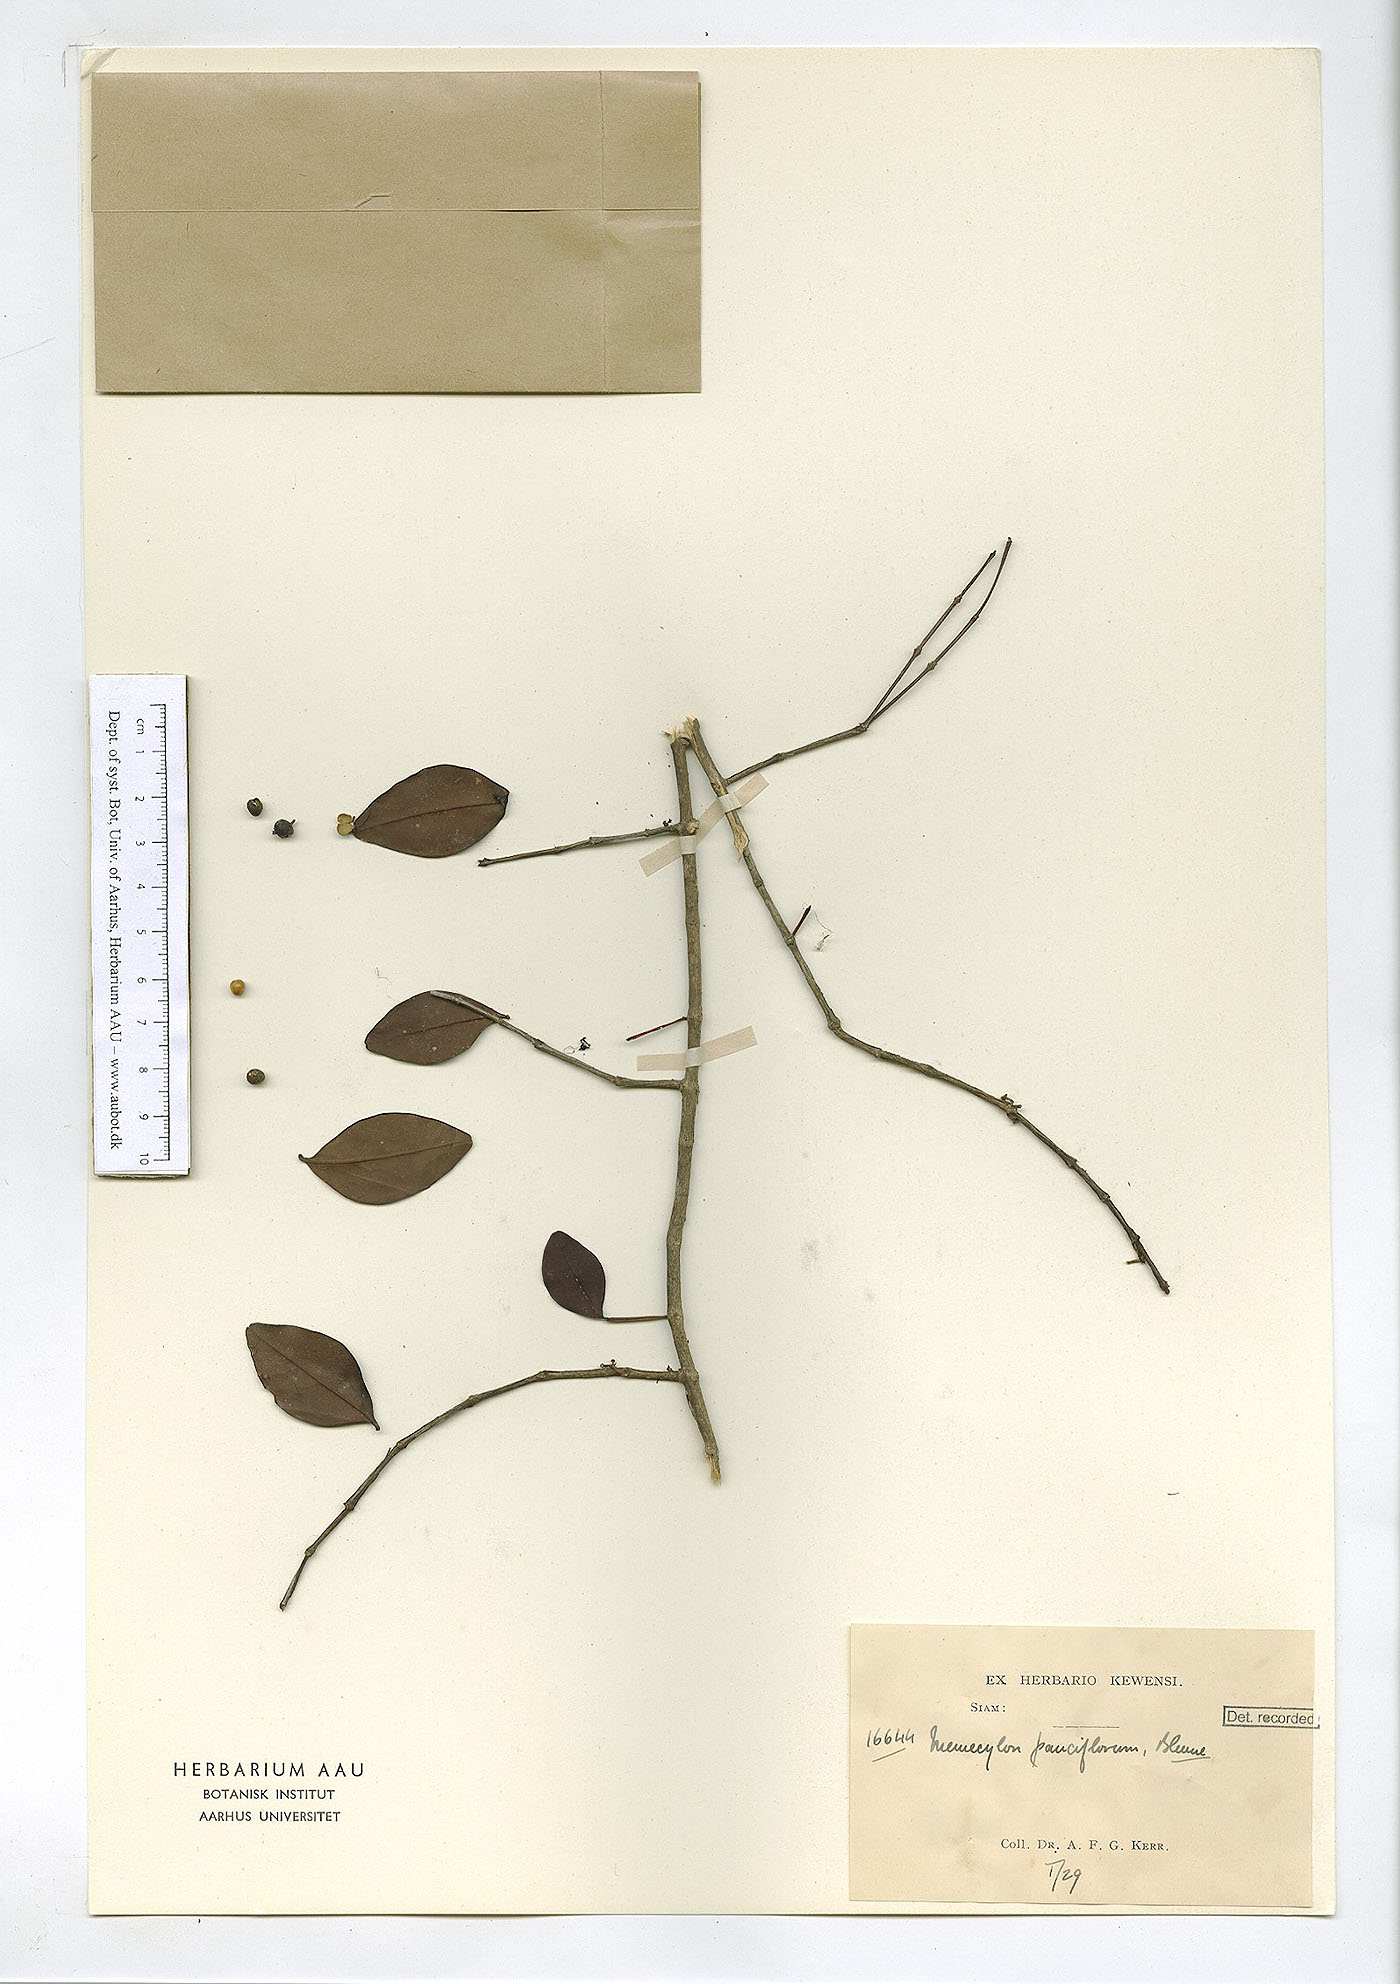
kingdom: Plantae
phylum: Tracheophyta
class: Magnoliopsida
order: Myrtales
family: Melastomataceae
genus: Memecylon
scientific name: Memecylon pauciflorum
